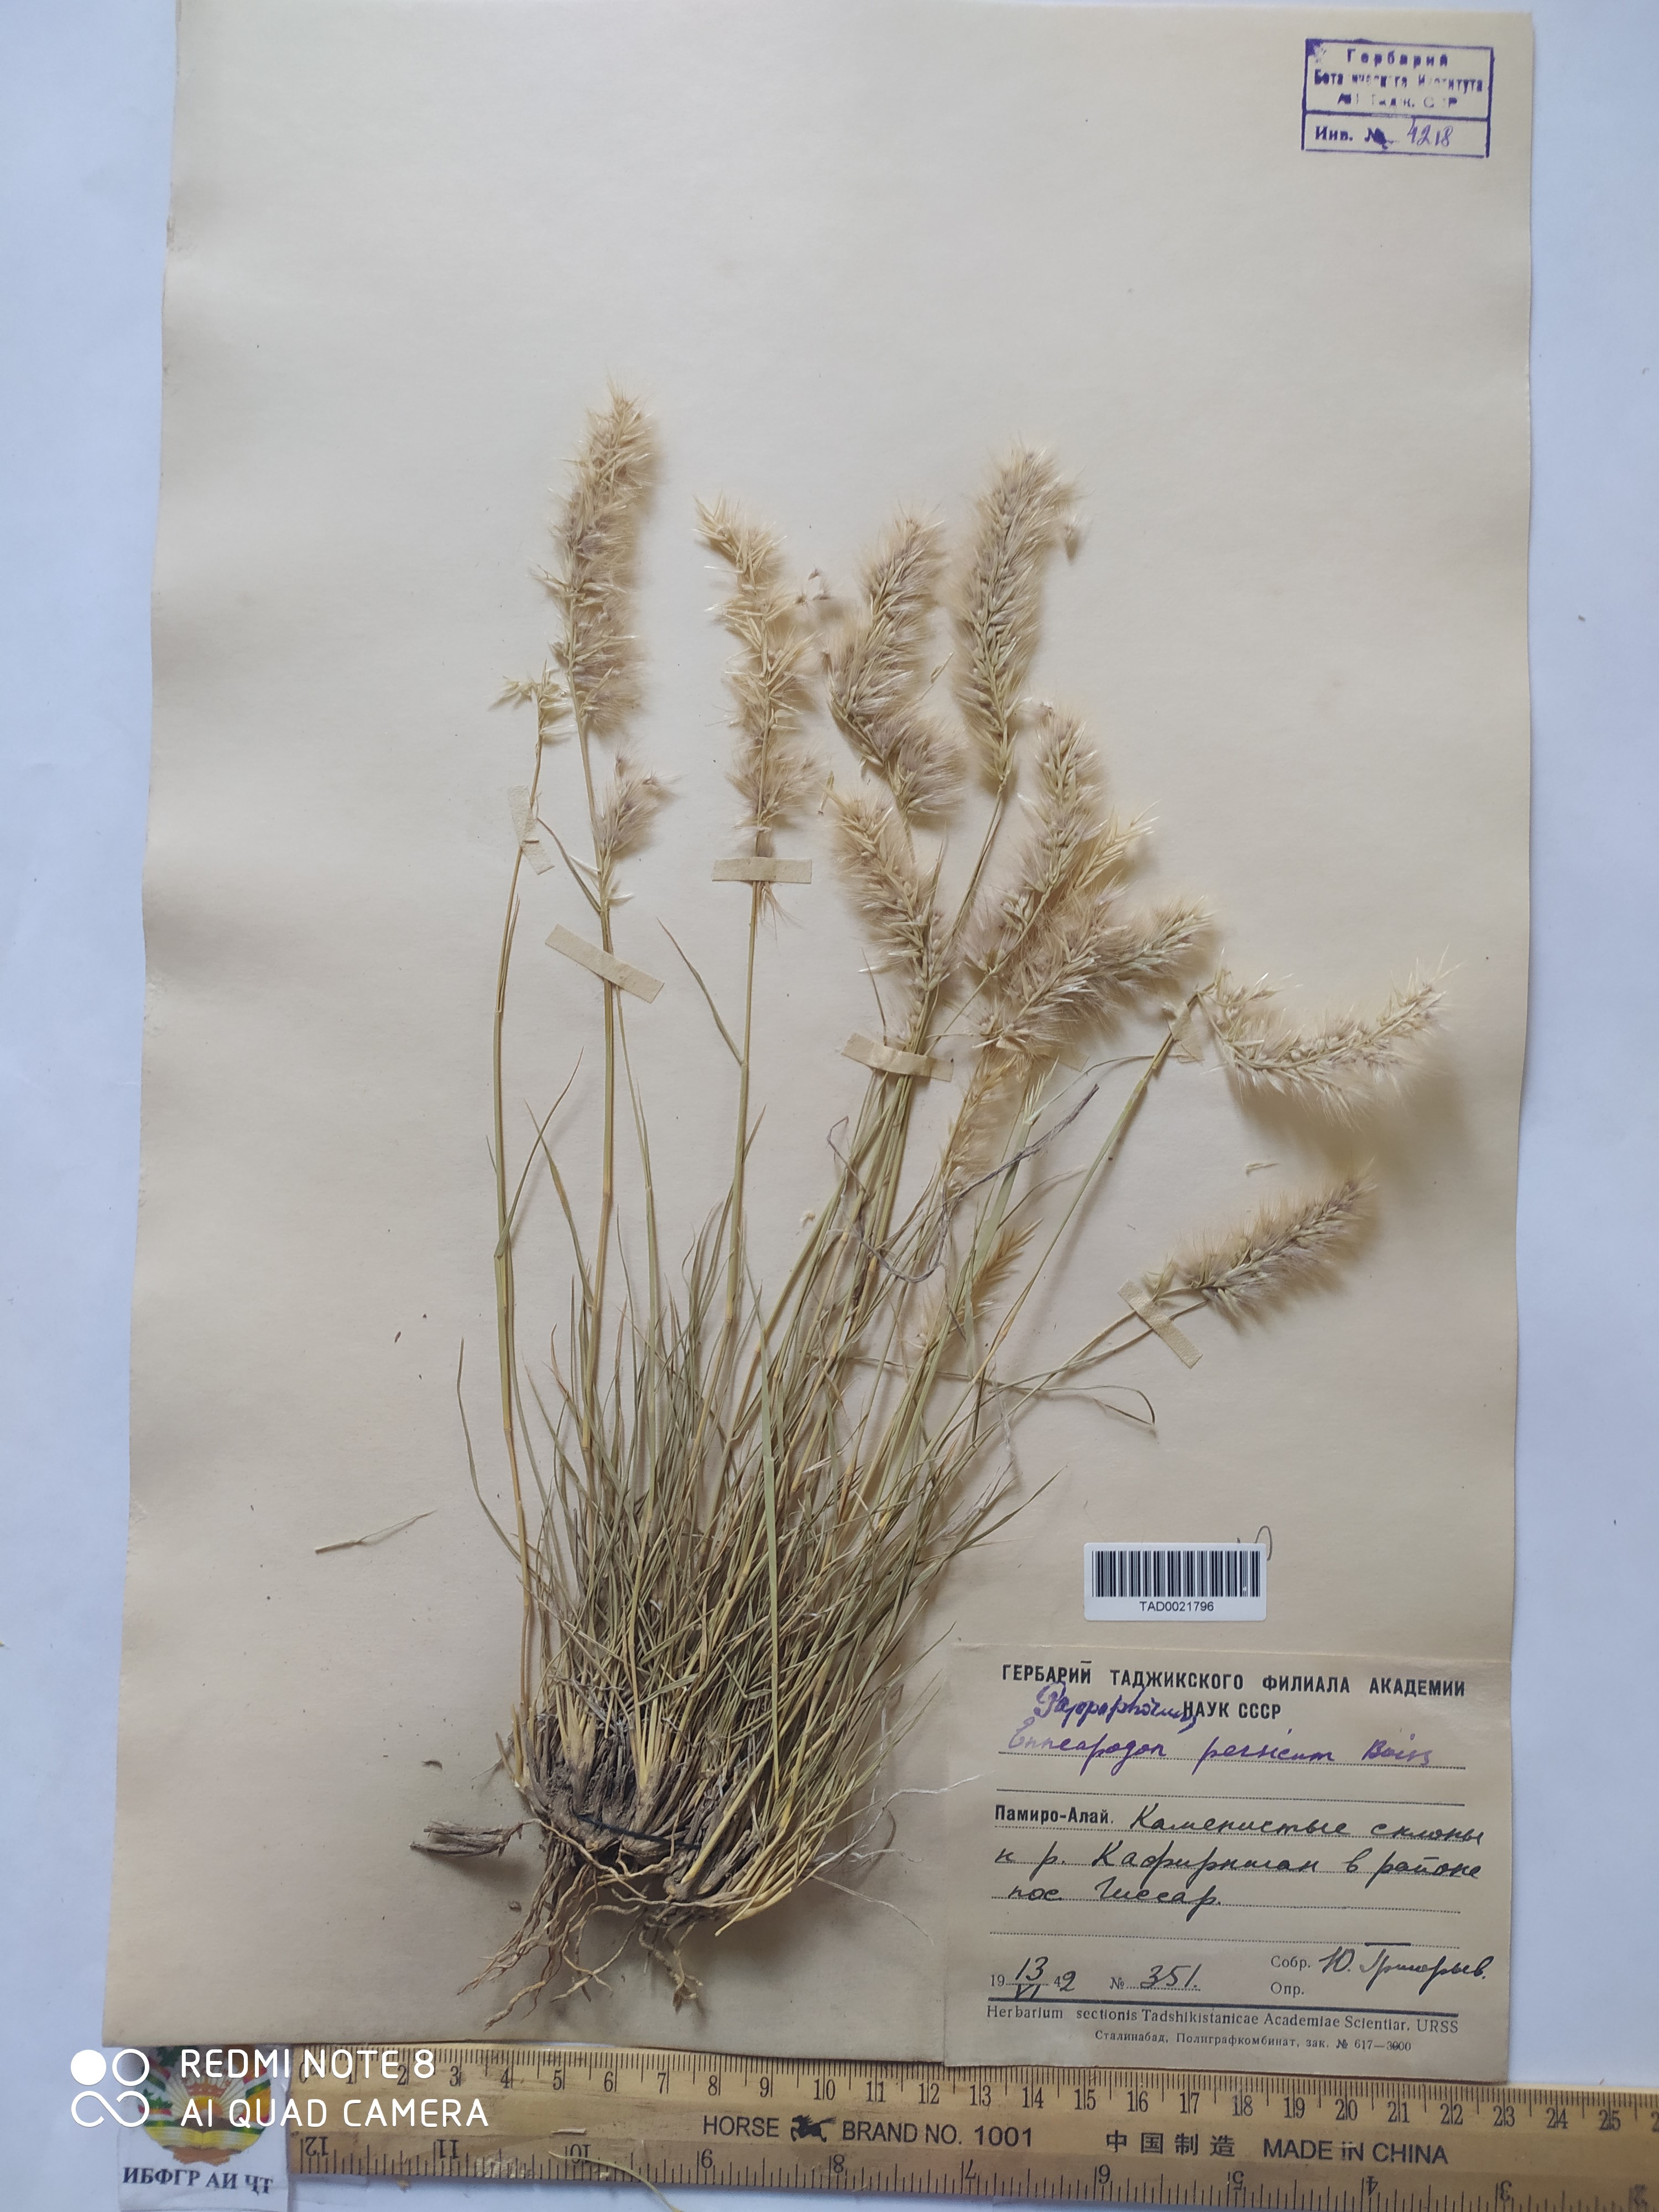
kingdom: Plantae
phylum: Tracheophyta
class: Liliopsida
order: Poales
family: Poaceae
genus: Enneapogon
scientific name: Enneapogon persicus
